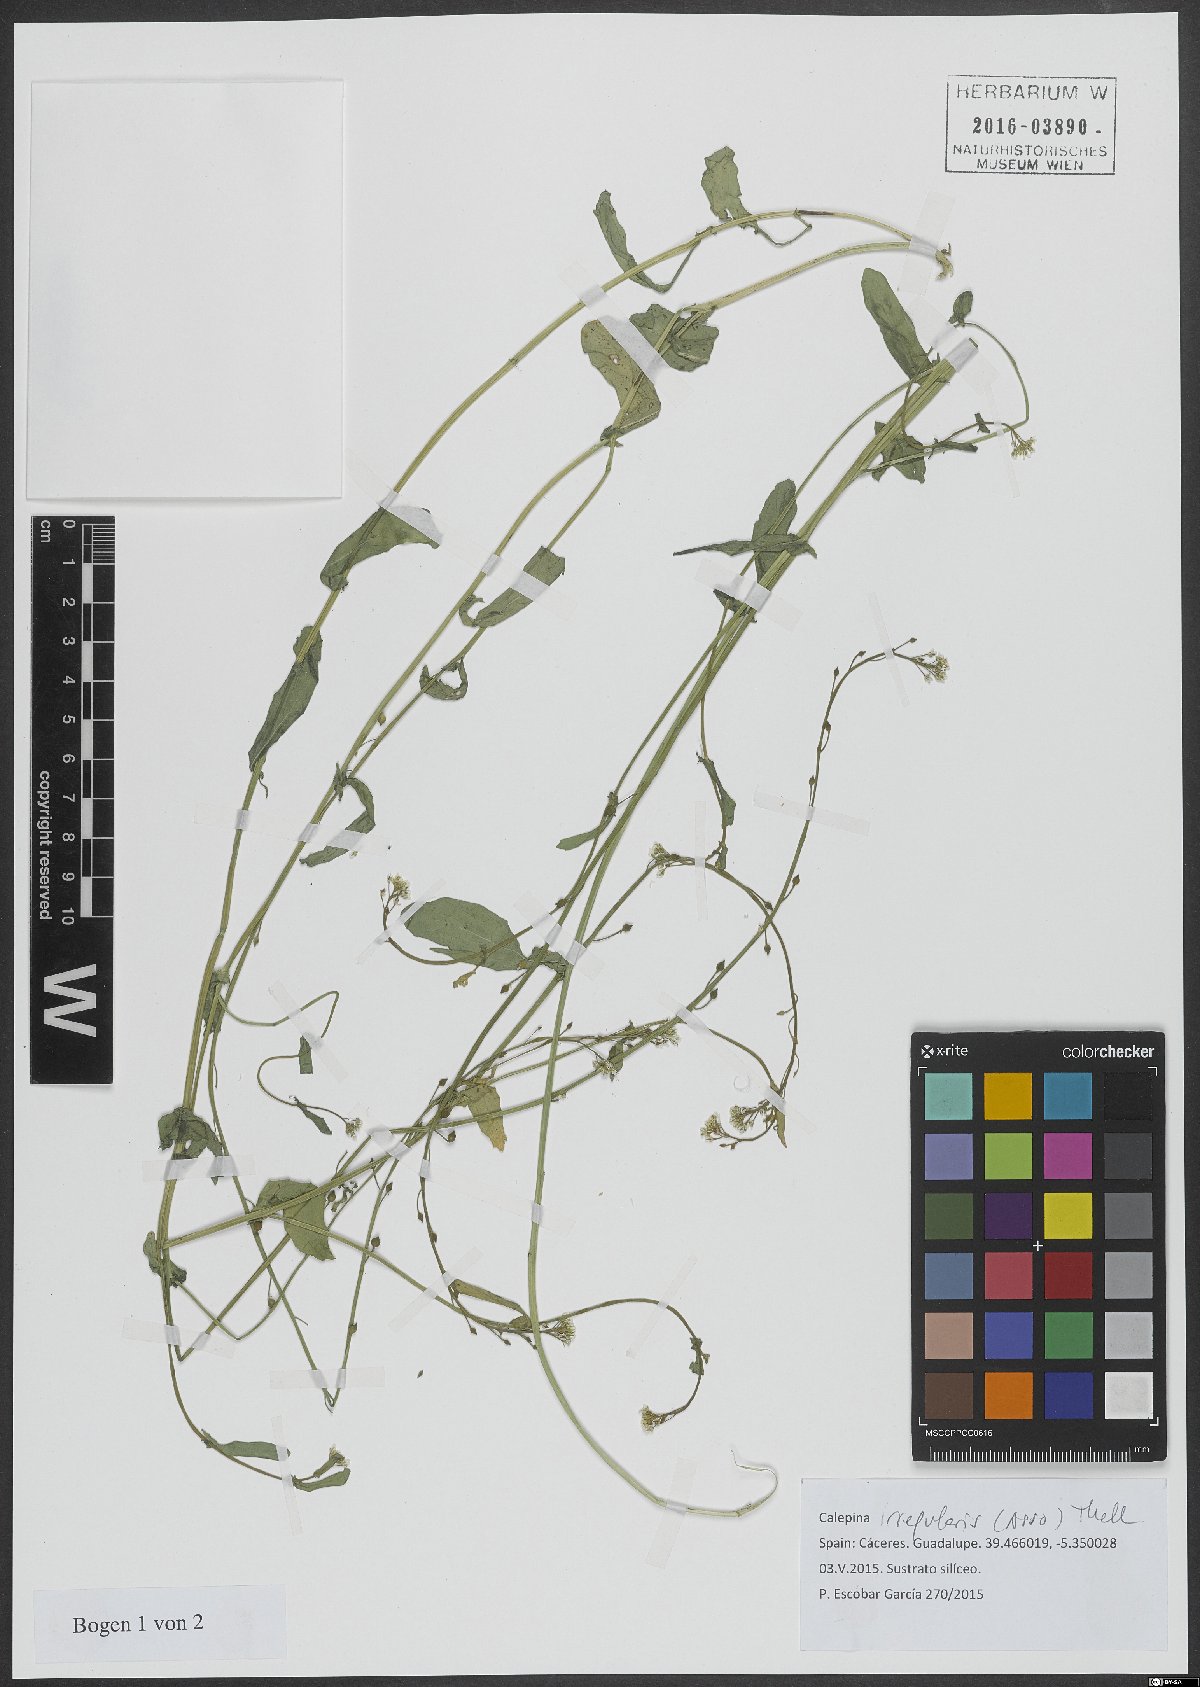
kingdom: Plantae
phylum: Tracheophyta
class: Magnoliopsida
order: Brassicales
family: Brassicaceae
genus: Calepina
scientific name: Calepina irregularis
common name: White ballmustard
